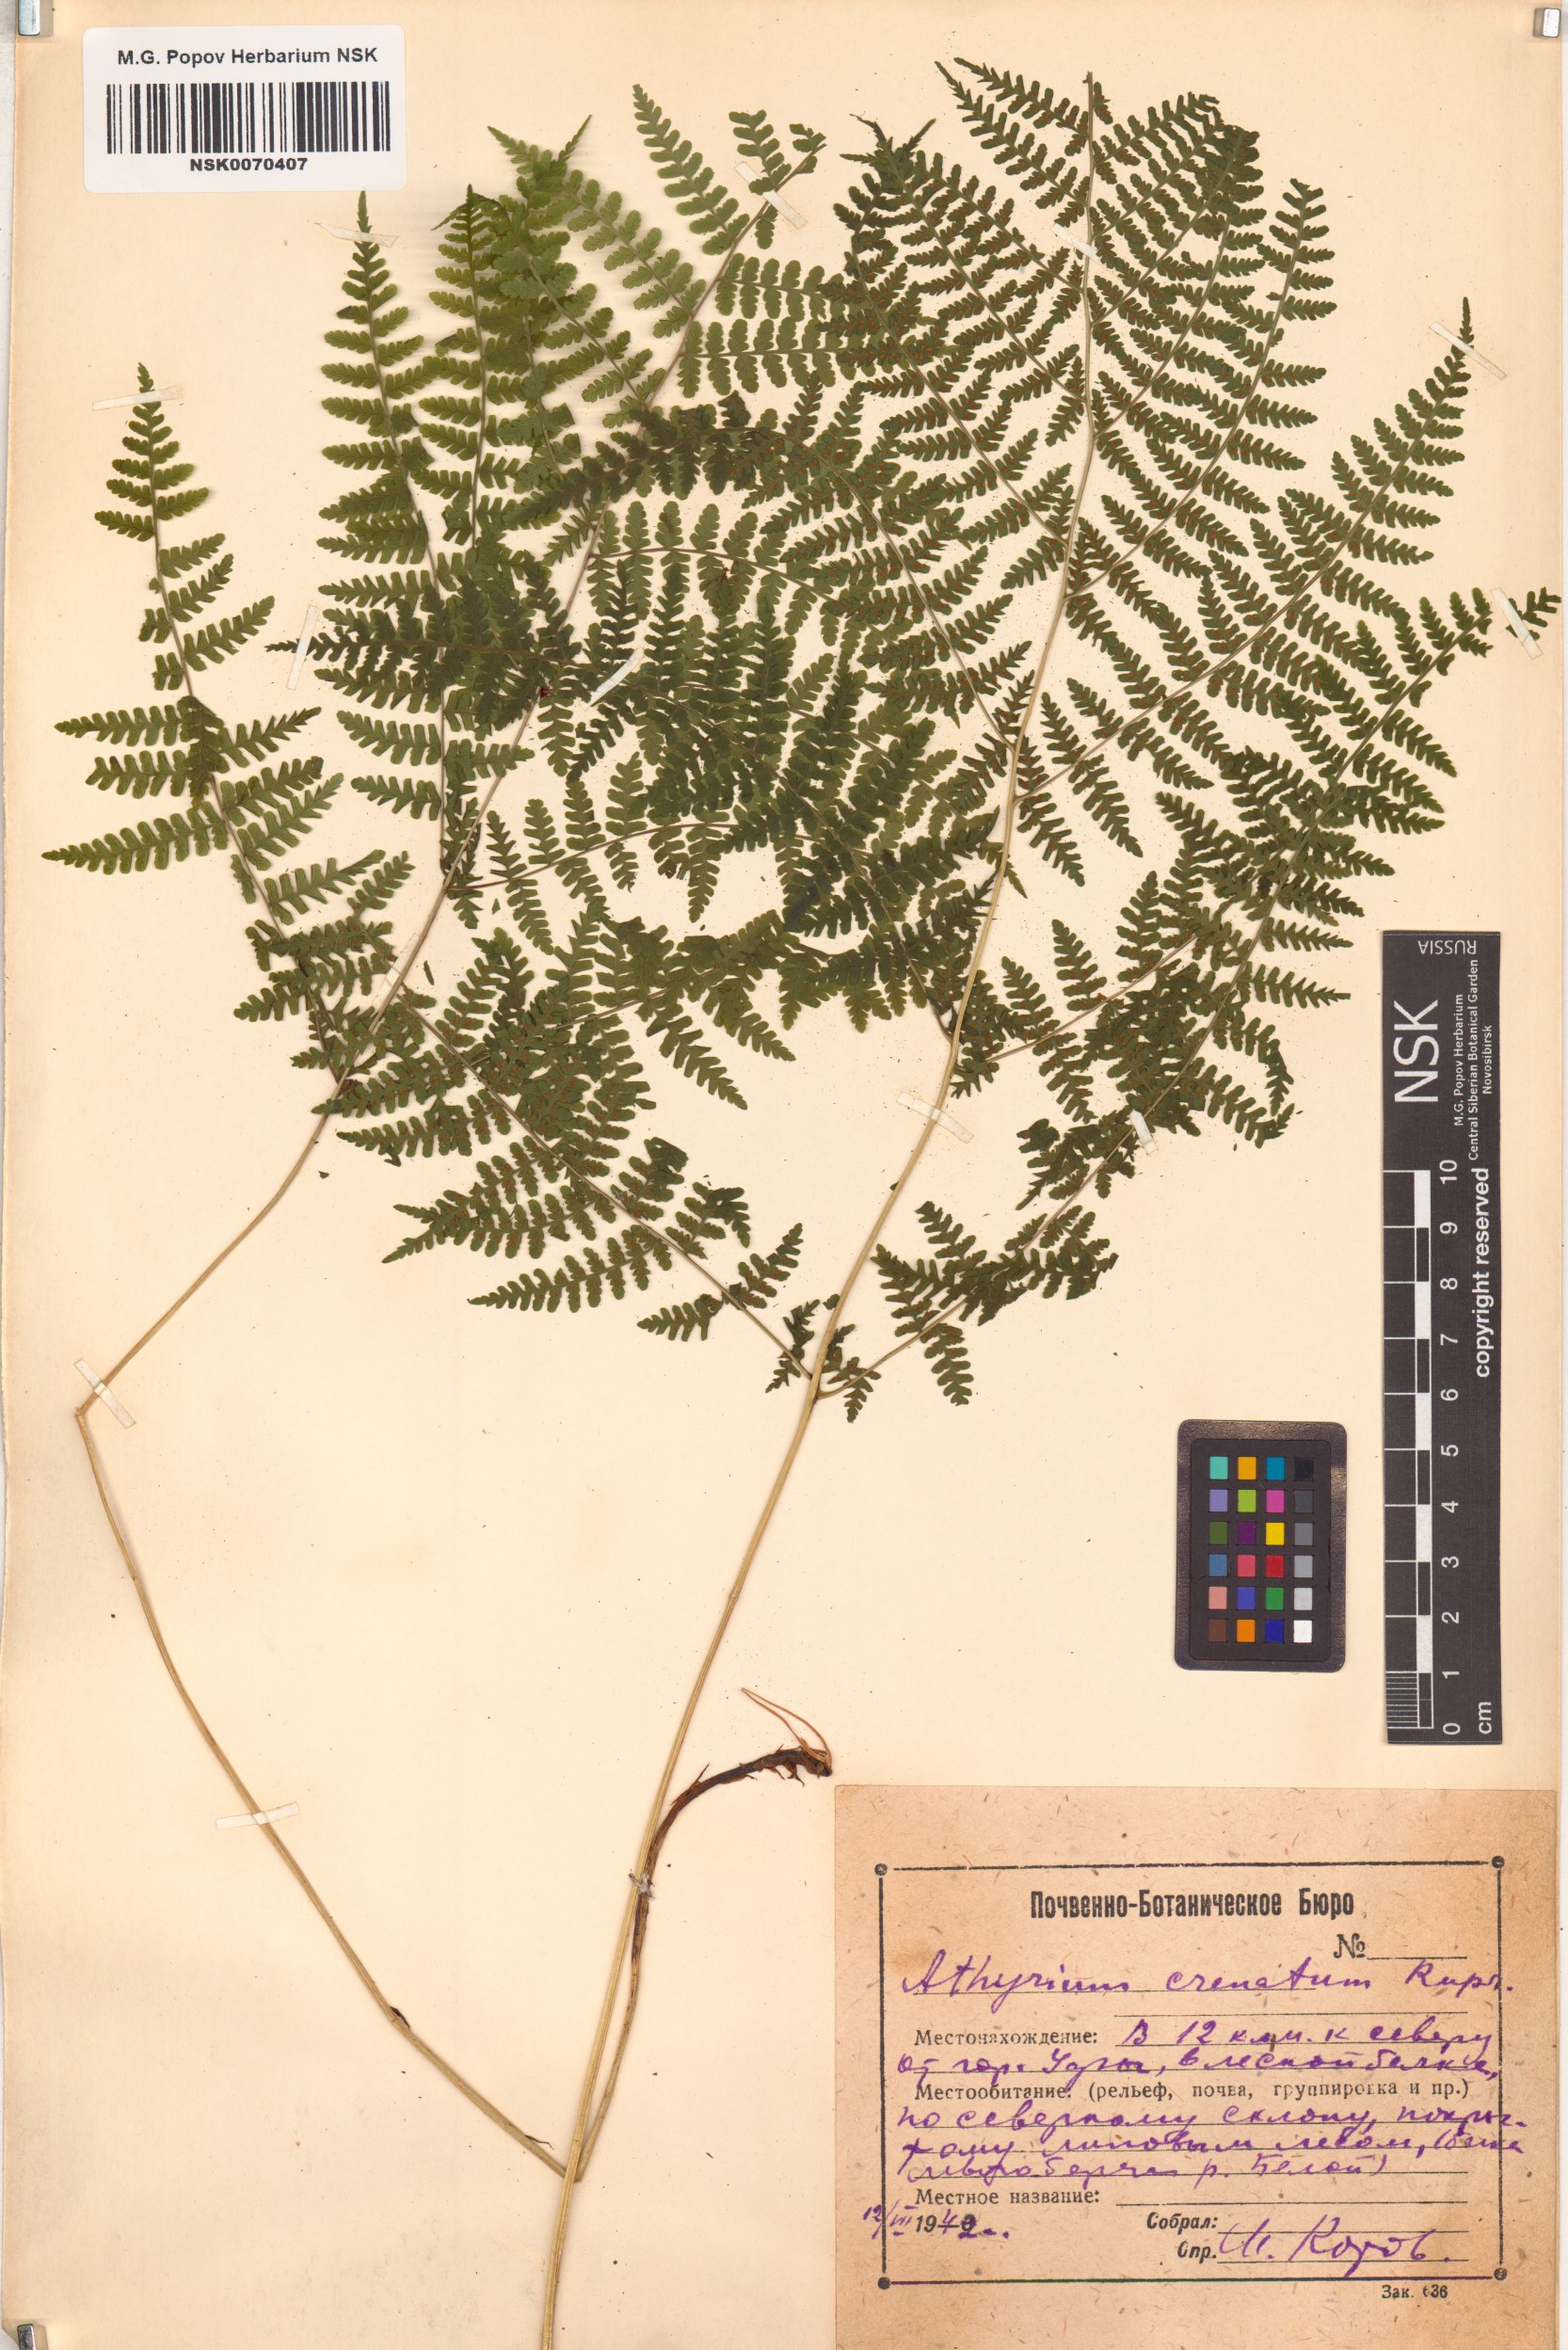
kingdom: Plantae
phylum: Tracheophyta
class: Polypodiopsida
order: Polypodiales
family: Athyriaceae
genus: Diplazium
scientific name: Diplazium sibiricum
